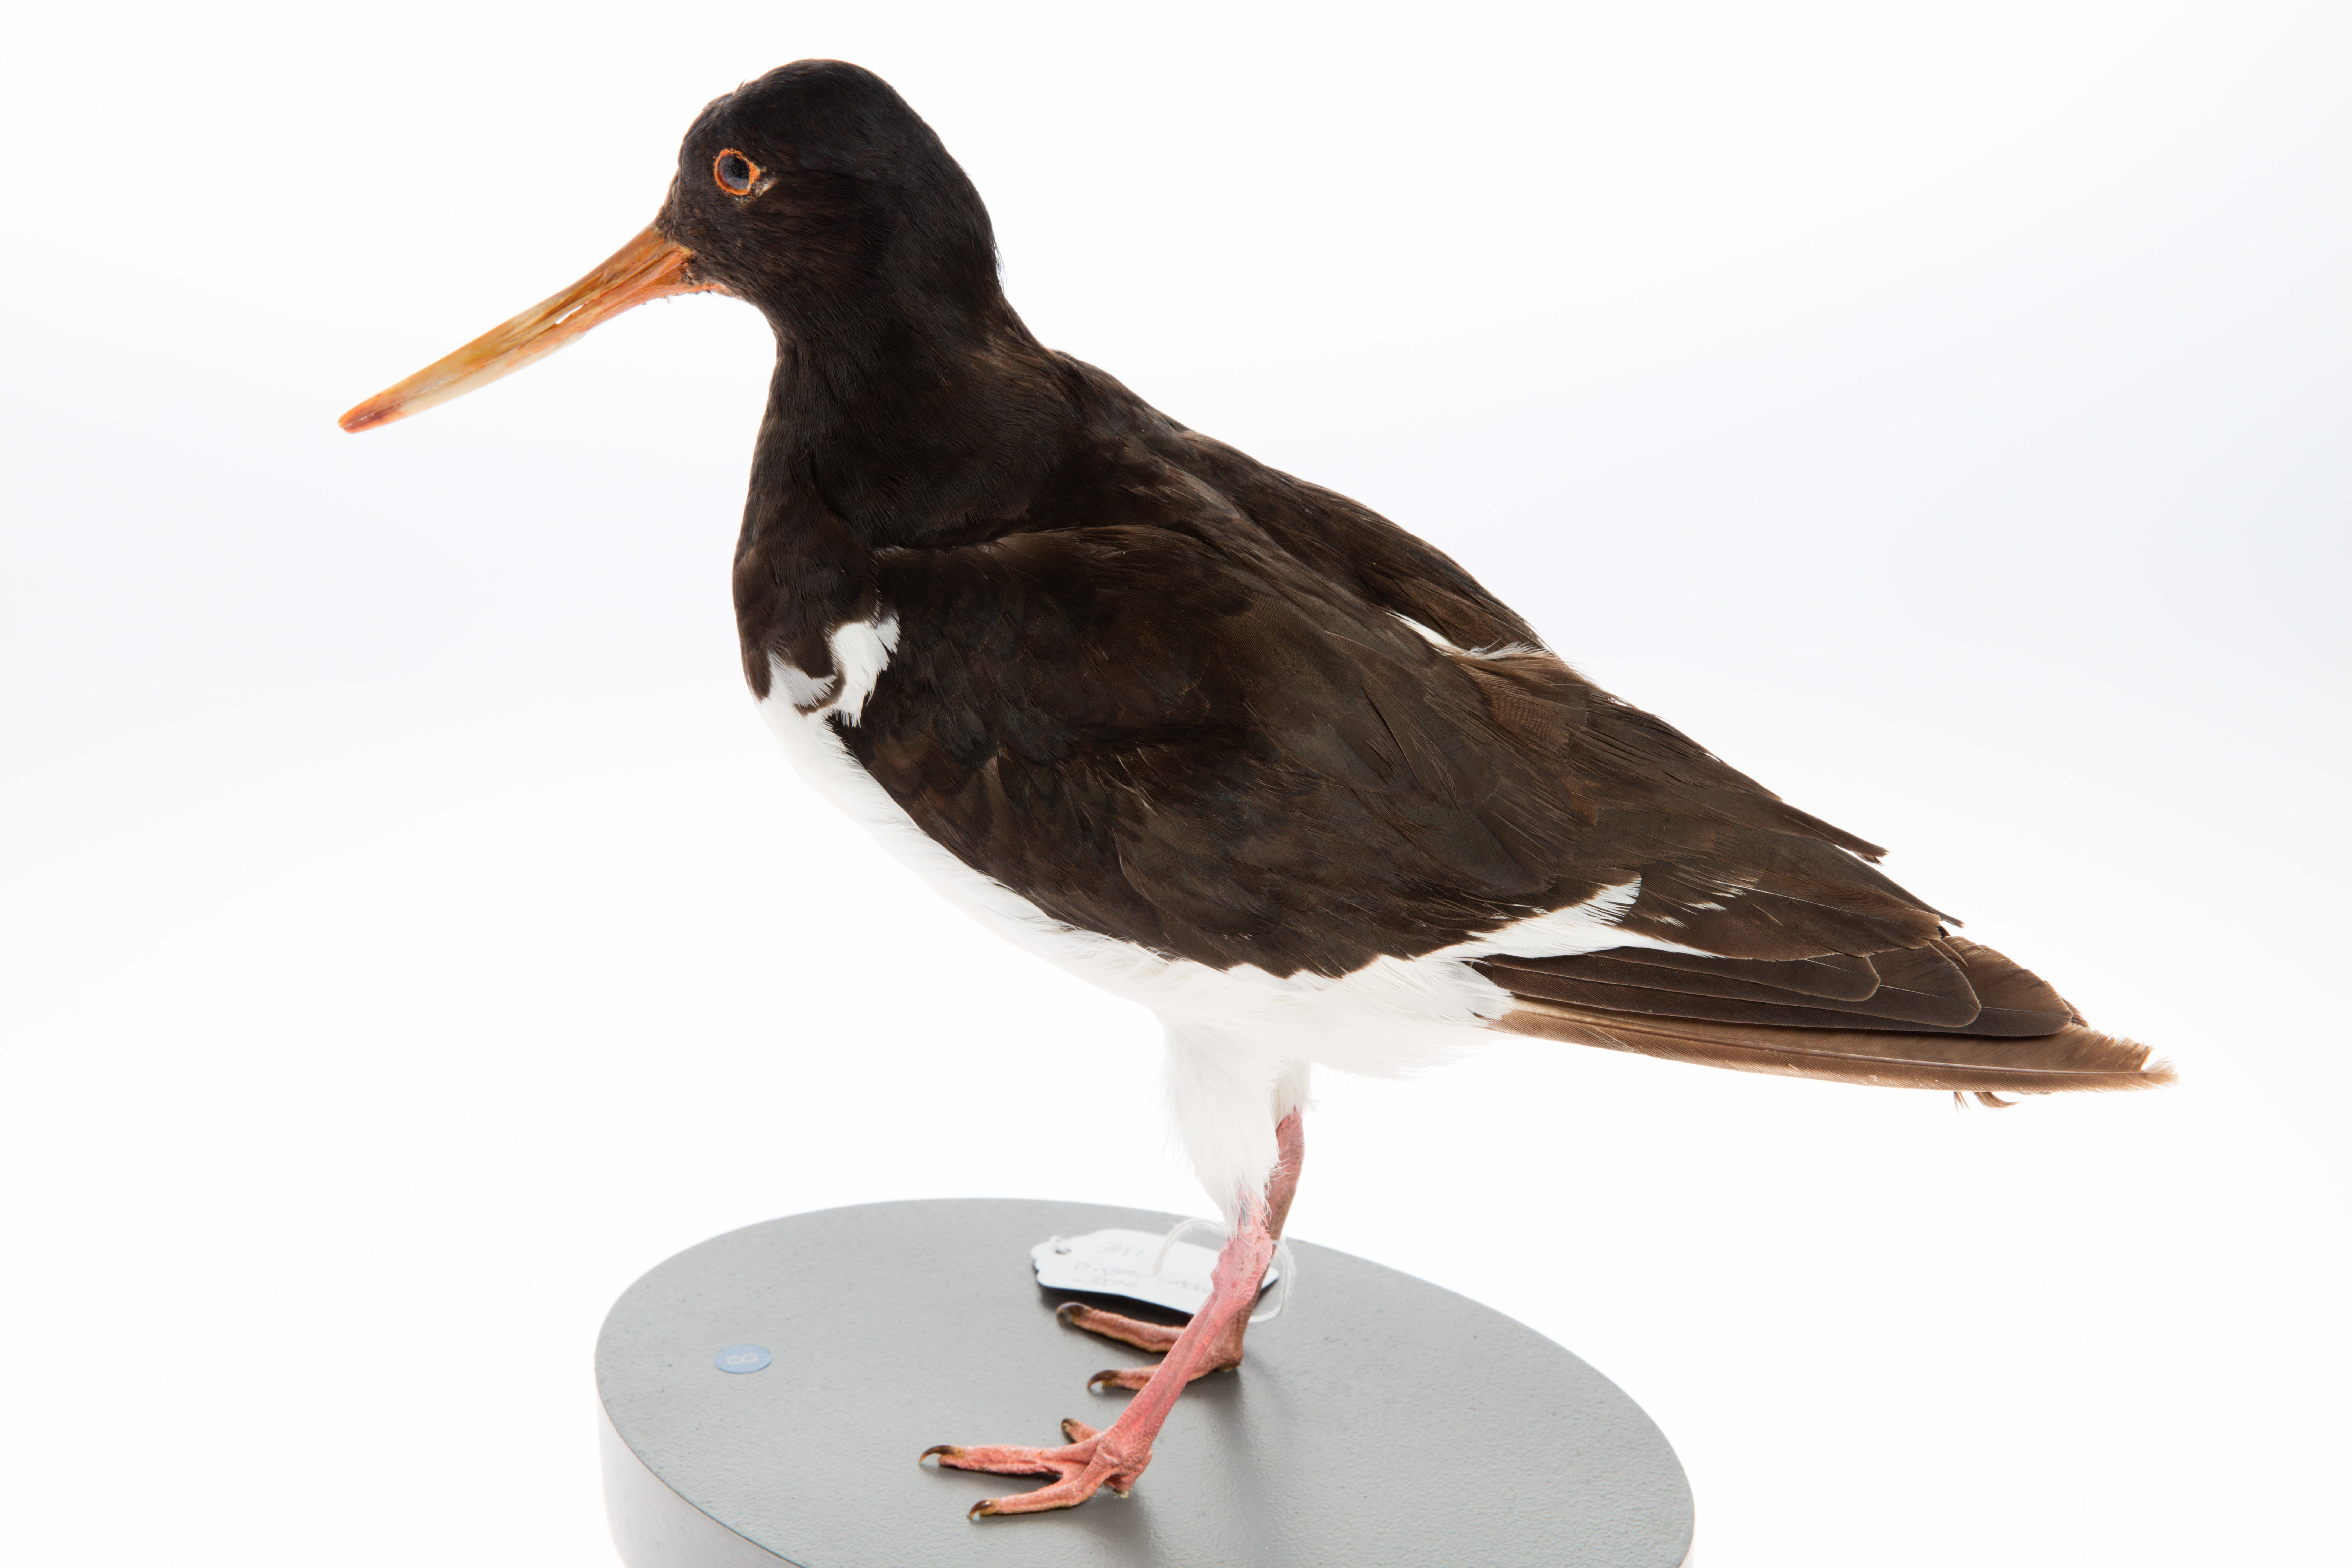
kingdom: Animalia
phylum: Chordata
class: Aves
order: Charadriiformes
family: Haematopodidae
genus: Haematopus
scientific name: Haematopus finschi
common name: South island oystercatcher
